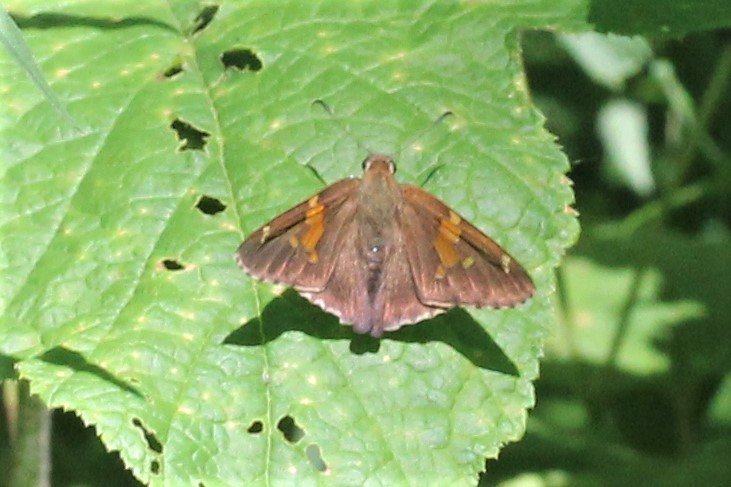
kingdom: Animalia
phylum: Arthropoda
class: Insecta
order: Lepidoptera
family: Hesperiidae
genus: Epargyreus
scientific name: Epargyreus clarus
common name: Silver-spotted Skipper
